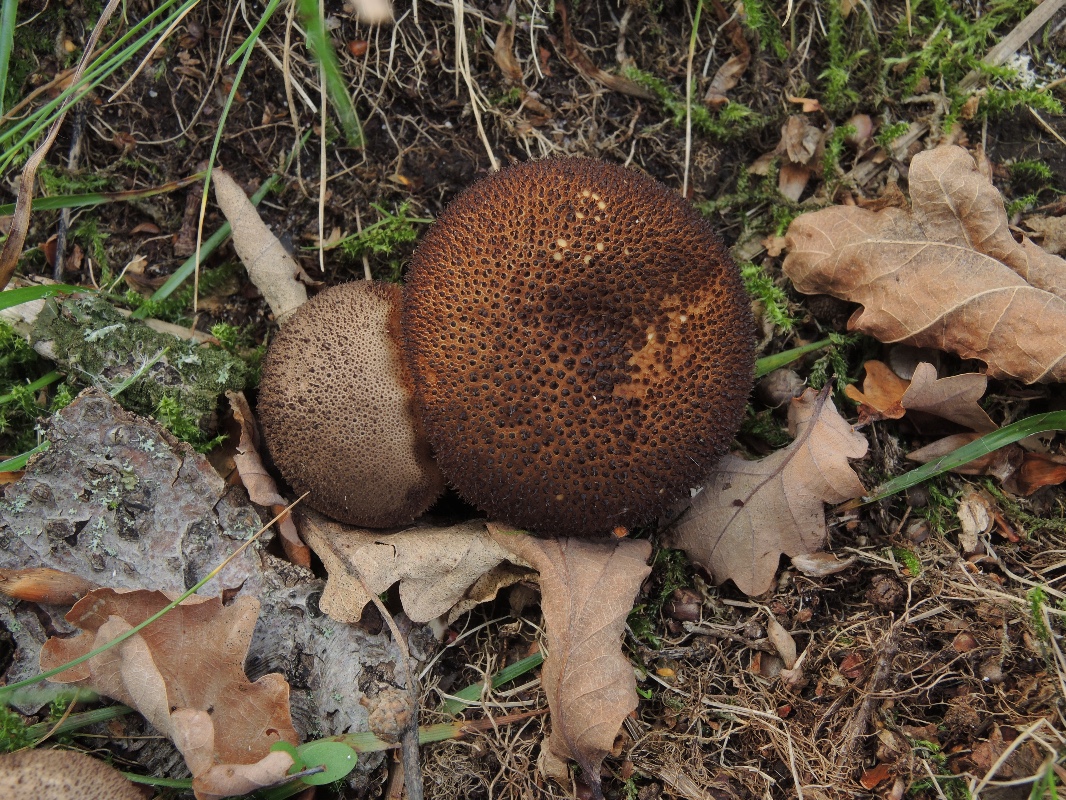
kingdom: Fungi
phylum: Basidiomycota
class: Agaricomycetes
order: Agaricales
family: Lycoperdaceae
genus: Lycoperdon
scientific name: Lycoperdon nigrescens
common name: sortagtig støvbold
